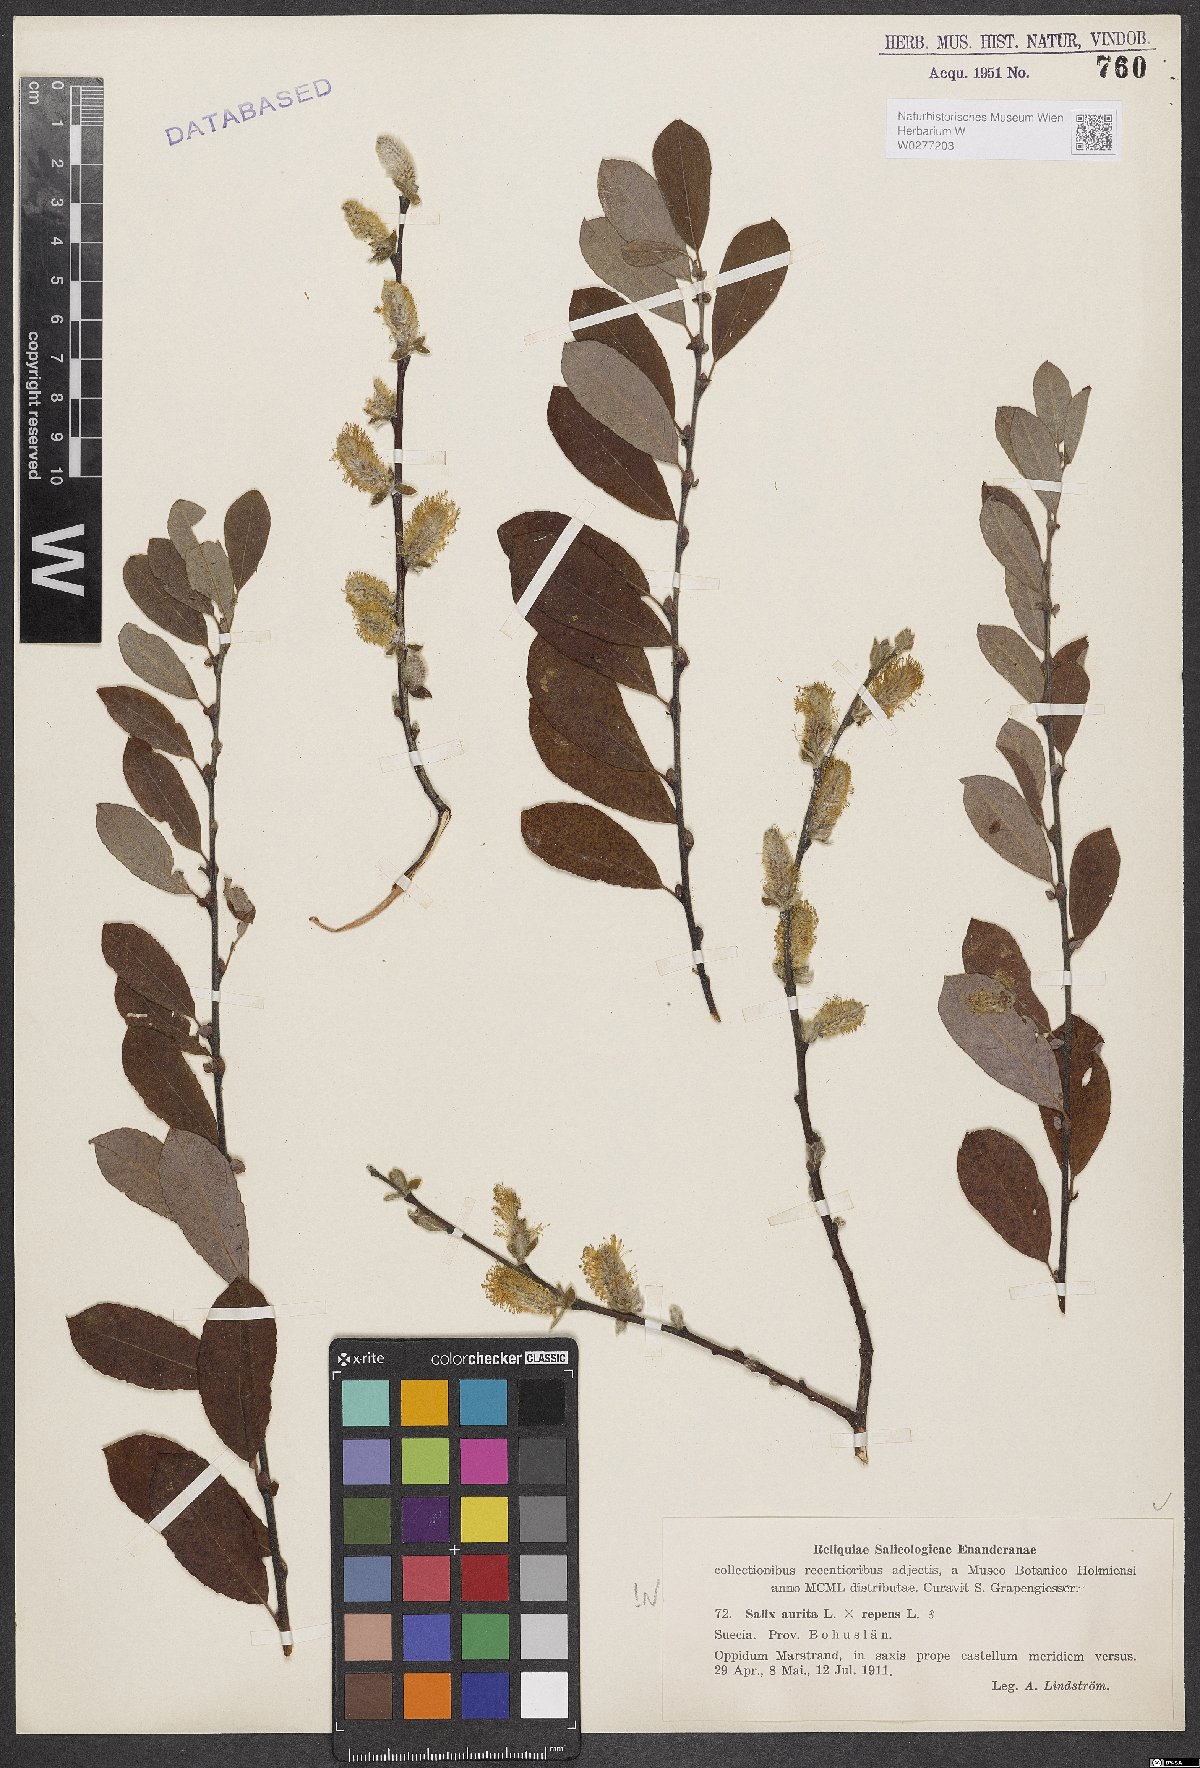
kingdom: Plantae
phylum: Tracheophyta
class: Magnoliopsida
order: Malpighiales
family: Salicaceae
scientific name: Salicaceae
